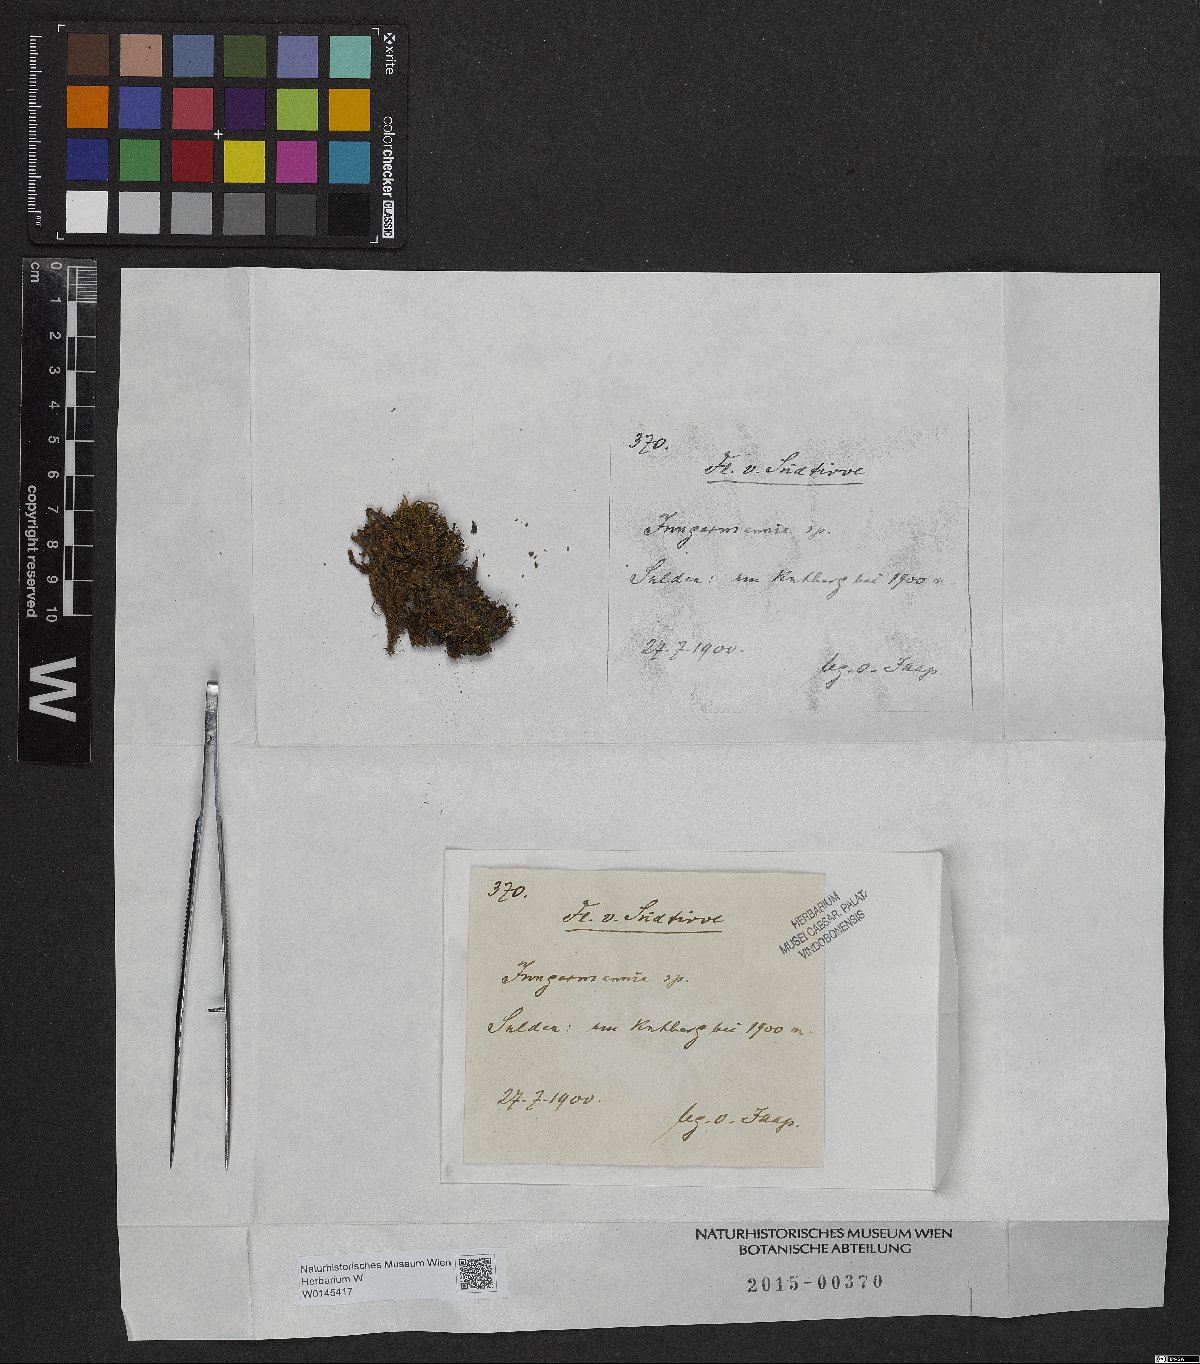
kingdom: Plantae
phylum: Marchantiophyta
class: Jungermanniopsida
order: Jungermanniales
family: Jungermanniaceae
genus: Jungermannia
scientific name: Jungermannia
